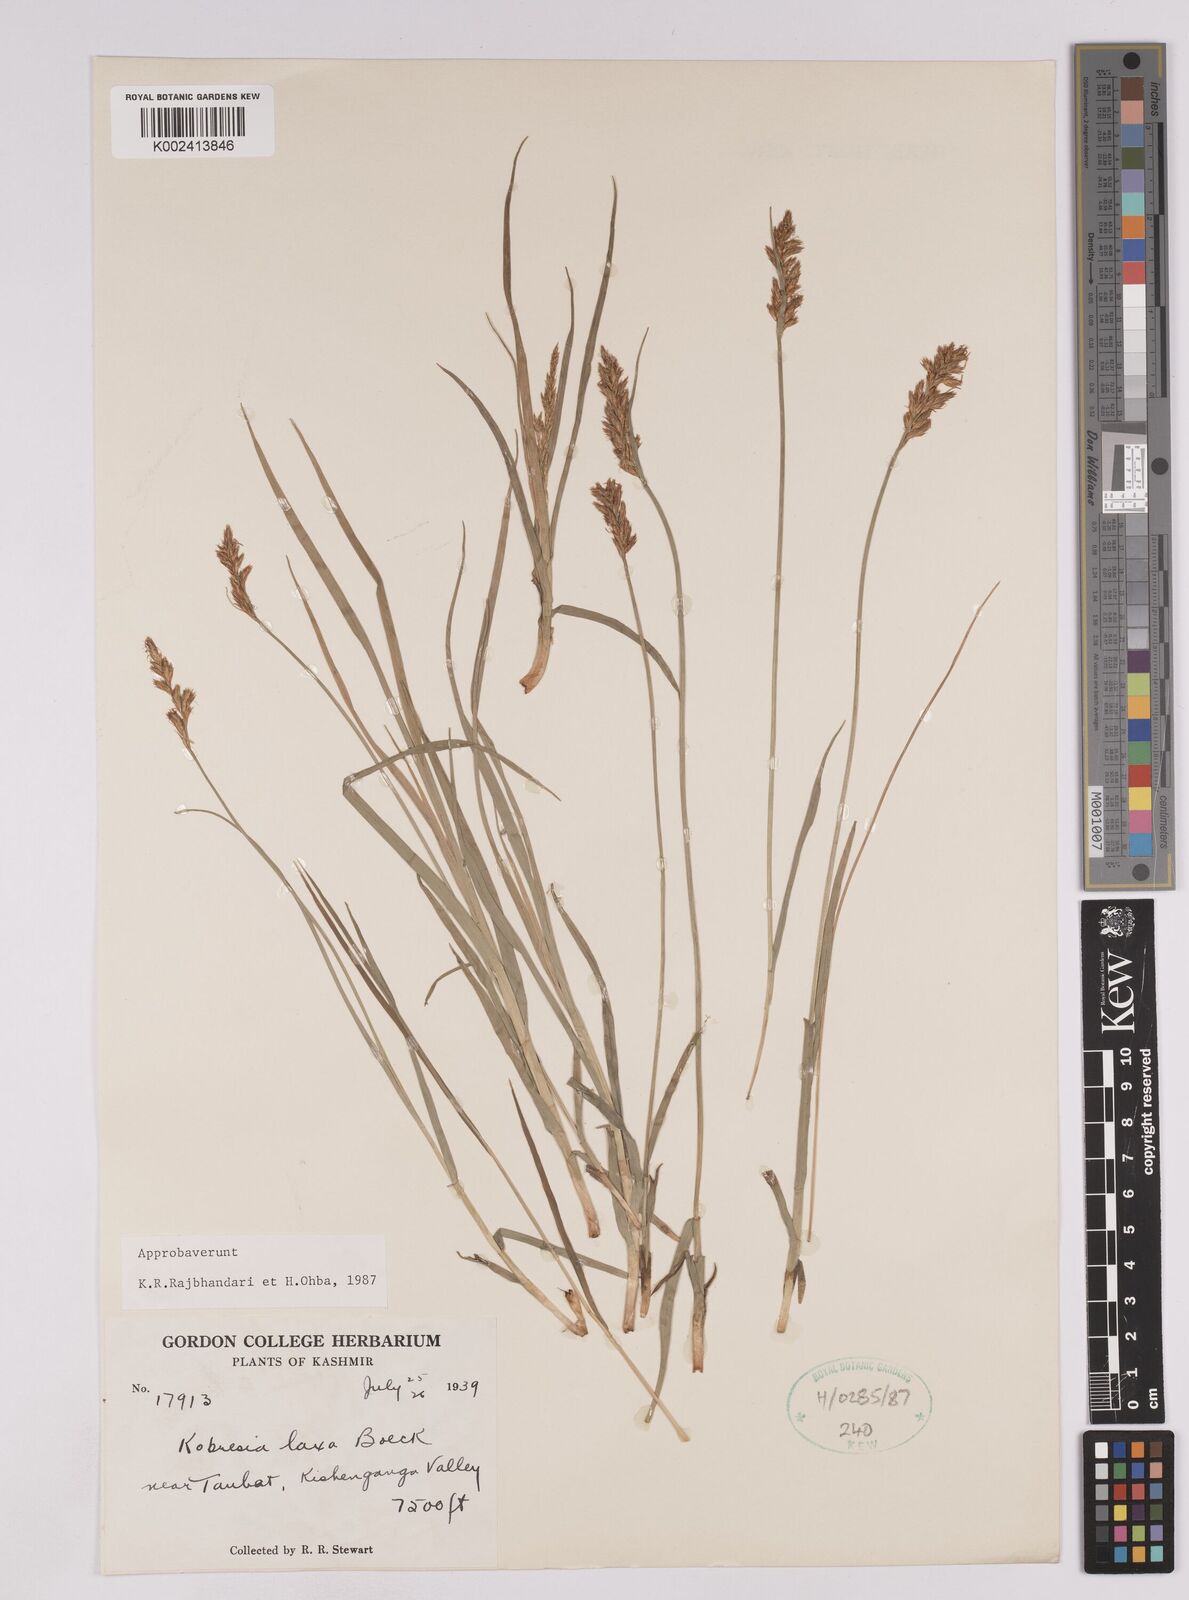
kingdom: Plantae
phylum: Tracheophyta
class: Liliopsida
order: Poales
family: Cyperaceae
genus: Carex
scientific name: Carex pseudolaxa
